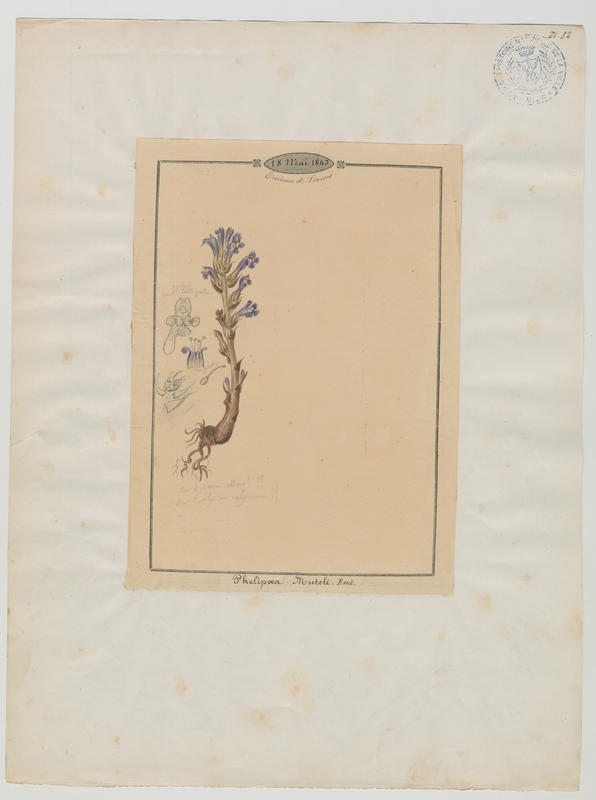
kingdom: Plantae
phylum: Tracheophyta
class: Magnoliopsida
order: Lamiales
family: Orobanchaceae
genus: Phelipanche
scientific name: Phelipanche mutelii
